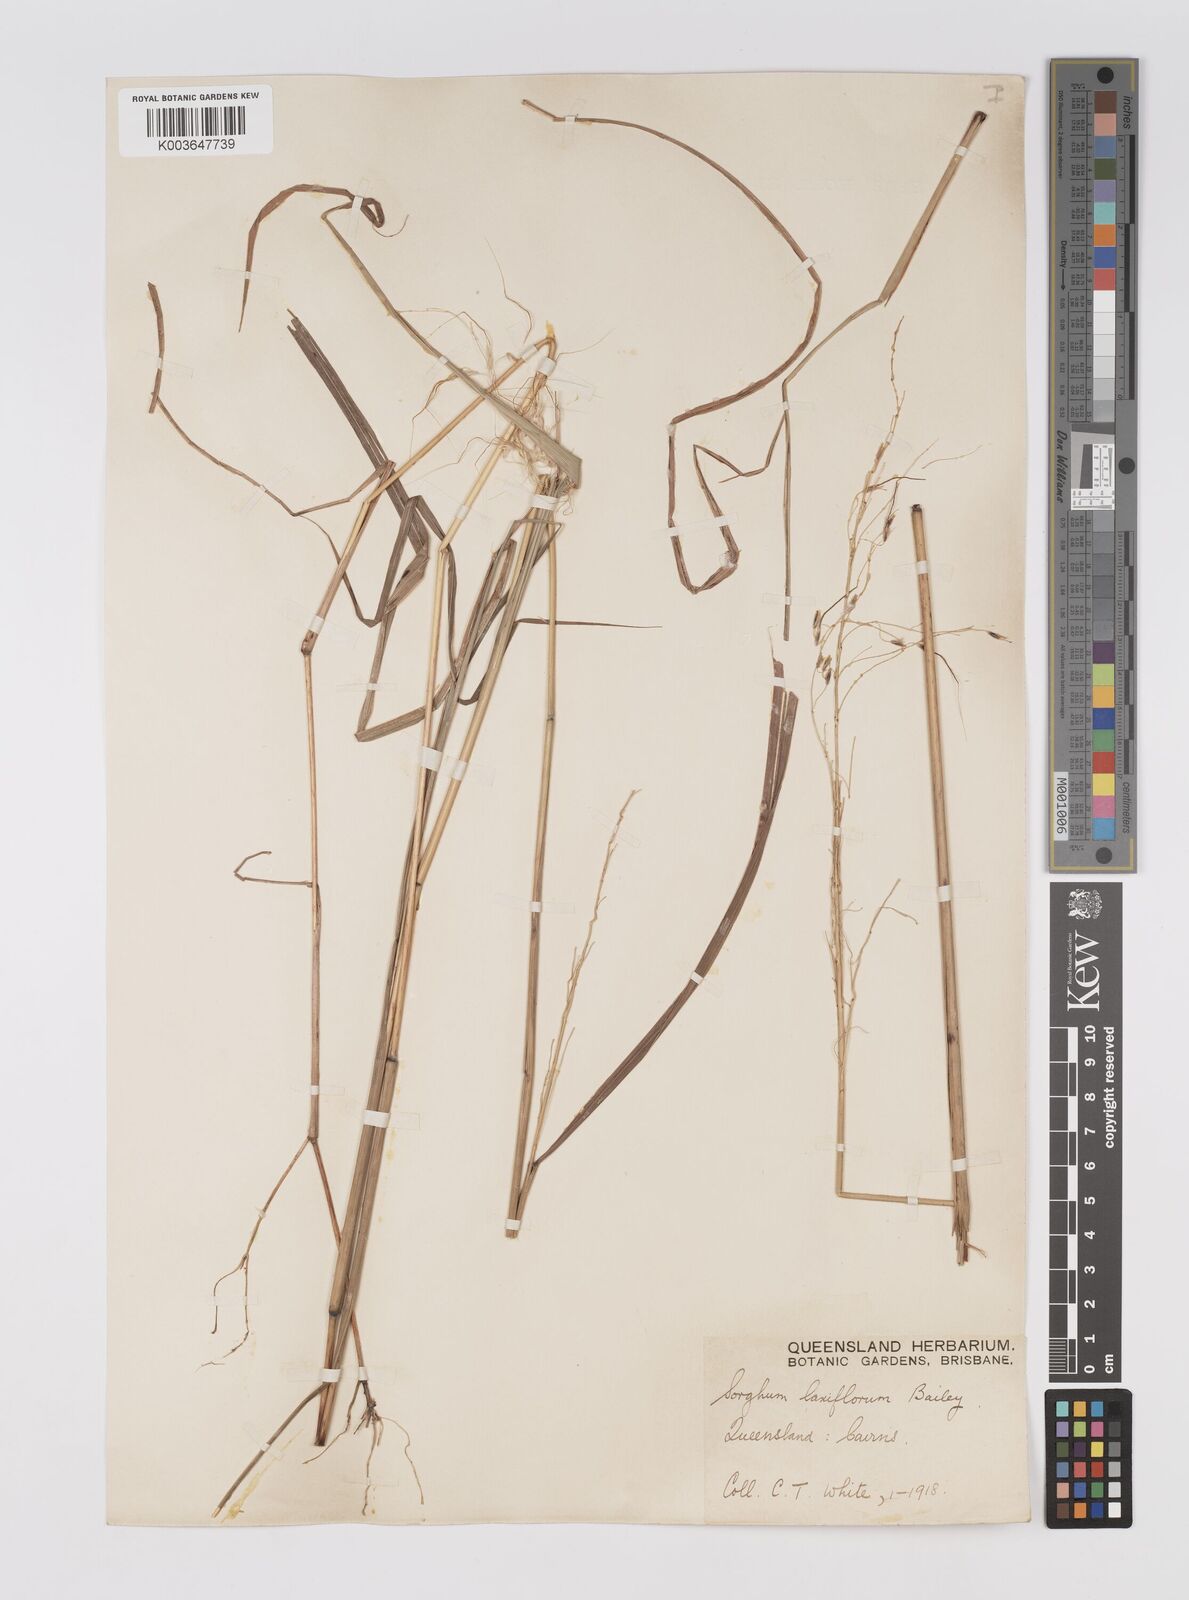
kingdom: Plantae
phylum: Tracheophyta
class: Liliopsida
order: Poales
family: Poaceae
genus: Sorghum
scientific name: Sorghum laxiflorum
